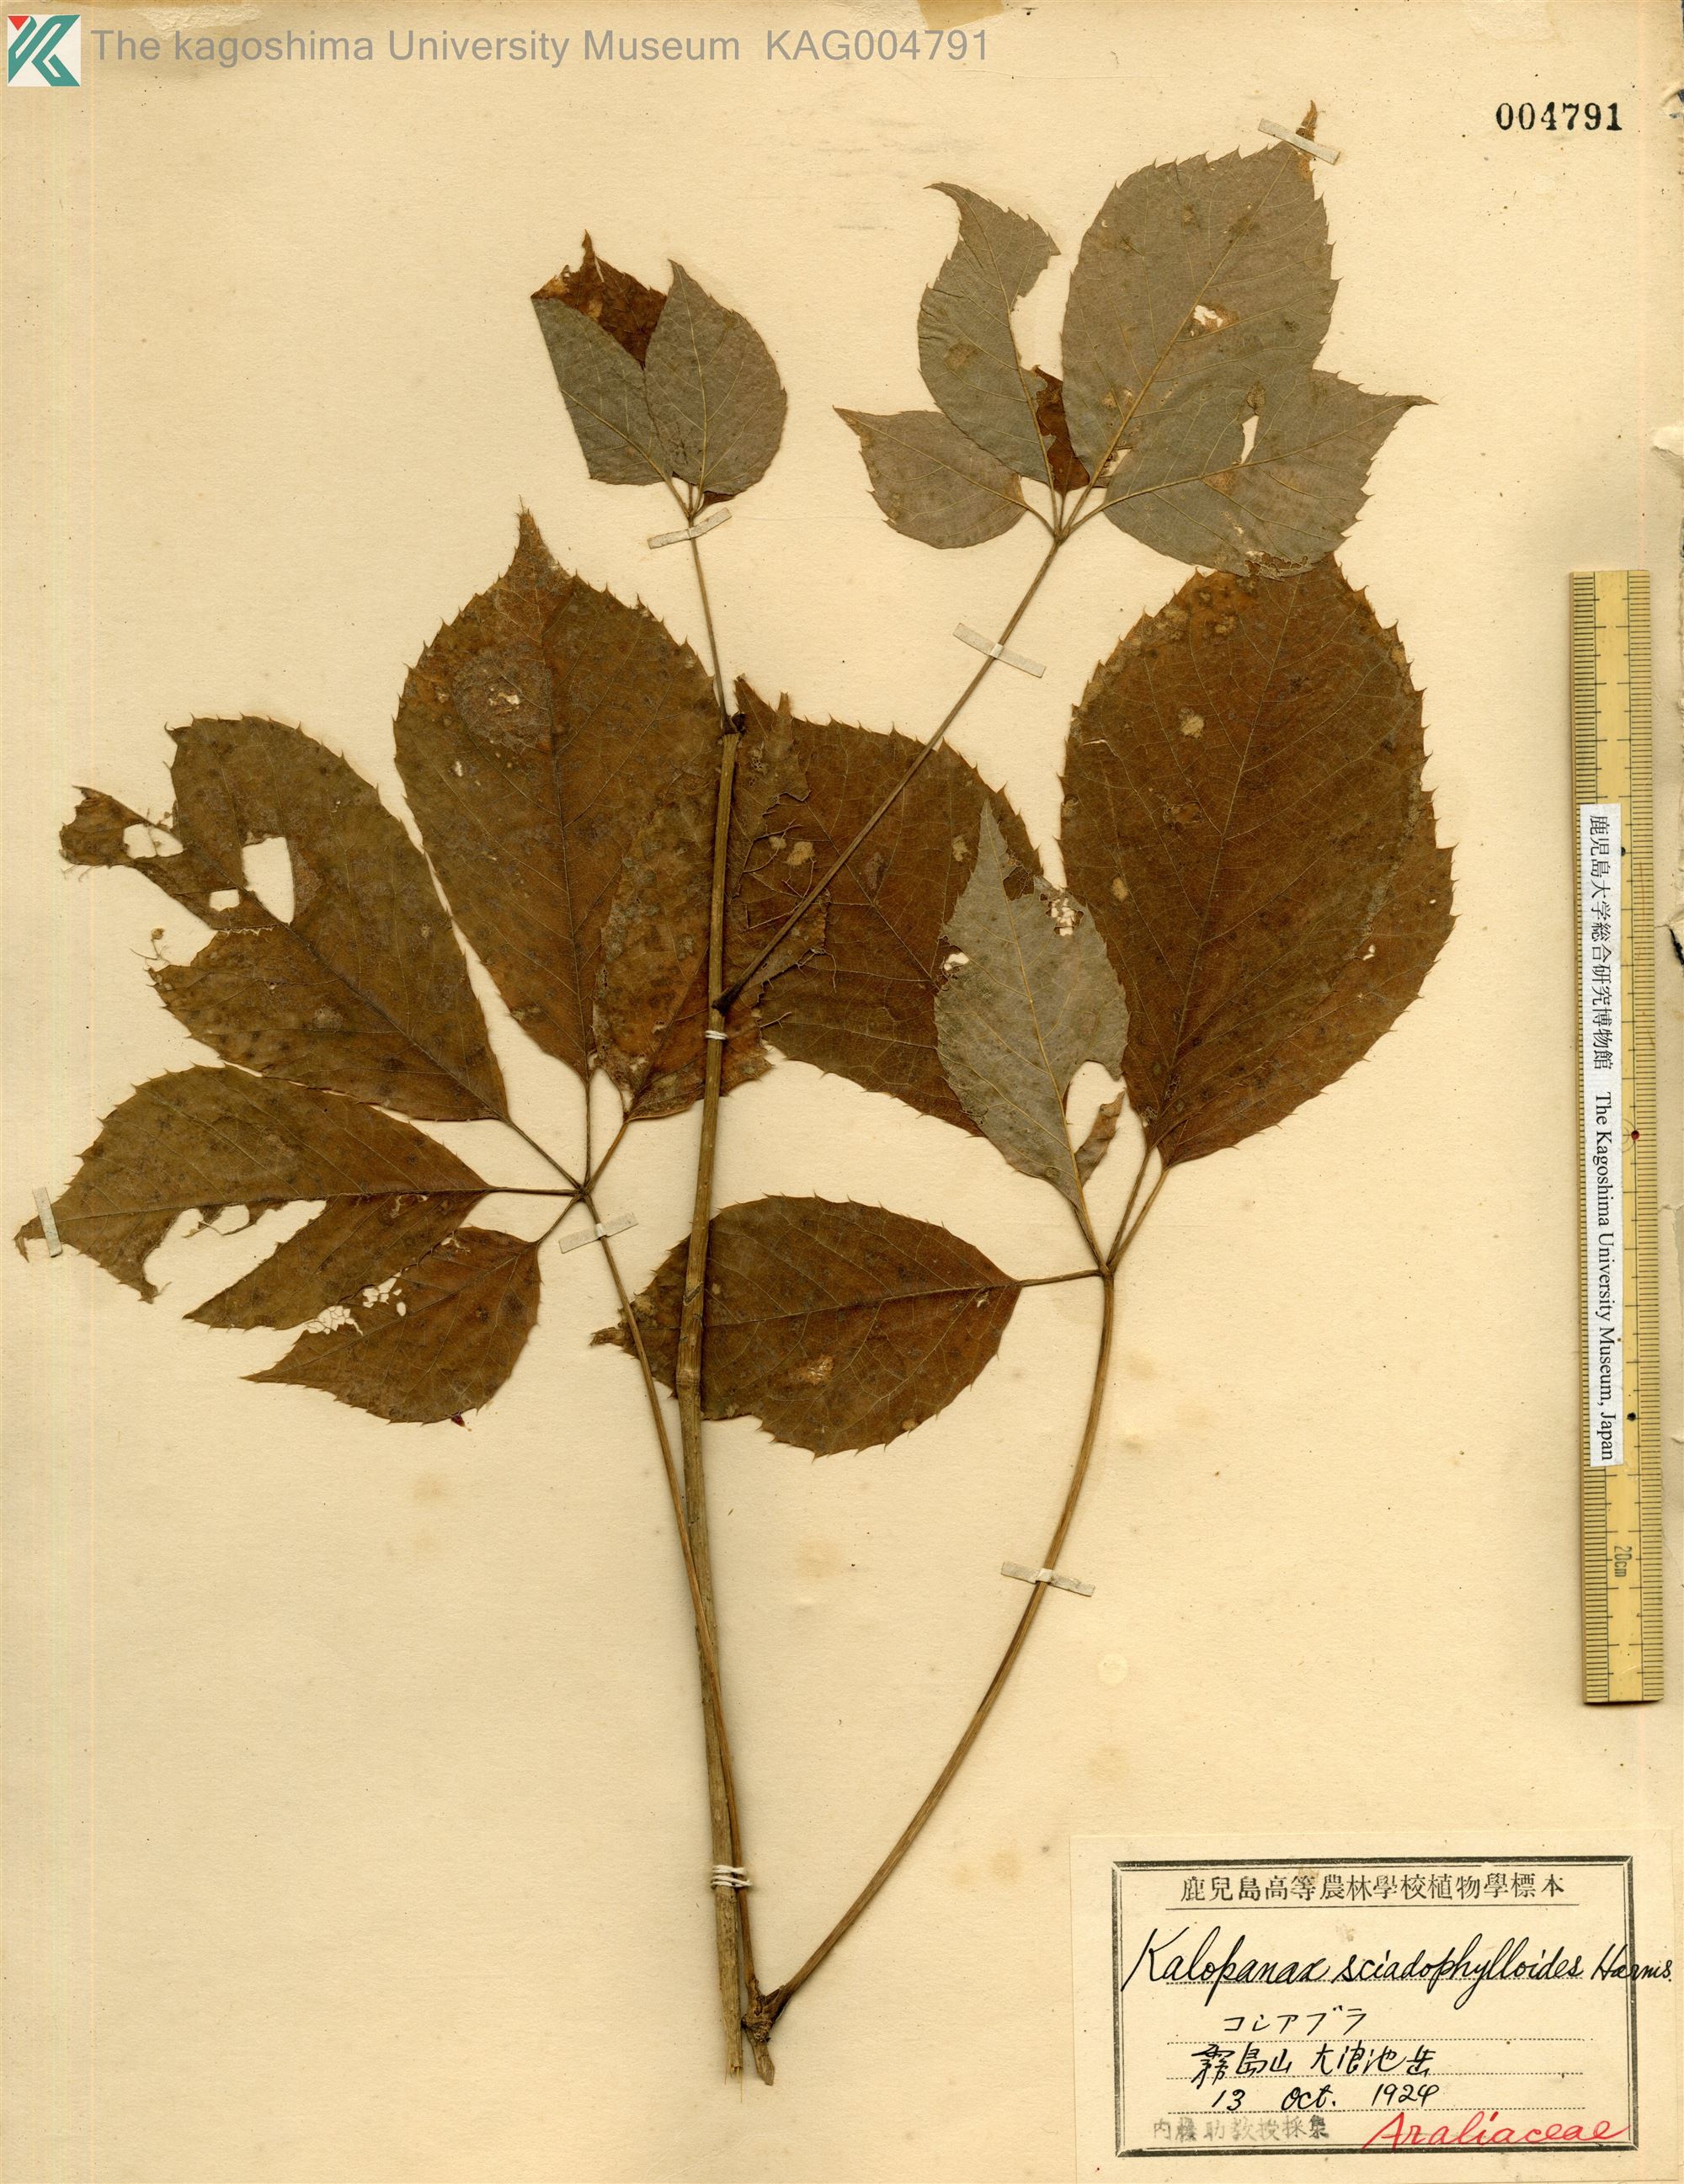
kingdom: Plantae
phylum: Tracheophyta
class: Magnoliopsida
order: Apiales
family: Araliaceae
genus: Chengiopanax
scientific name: Chengiopanax sciadophylloides
